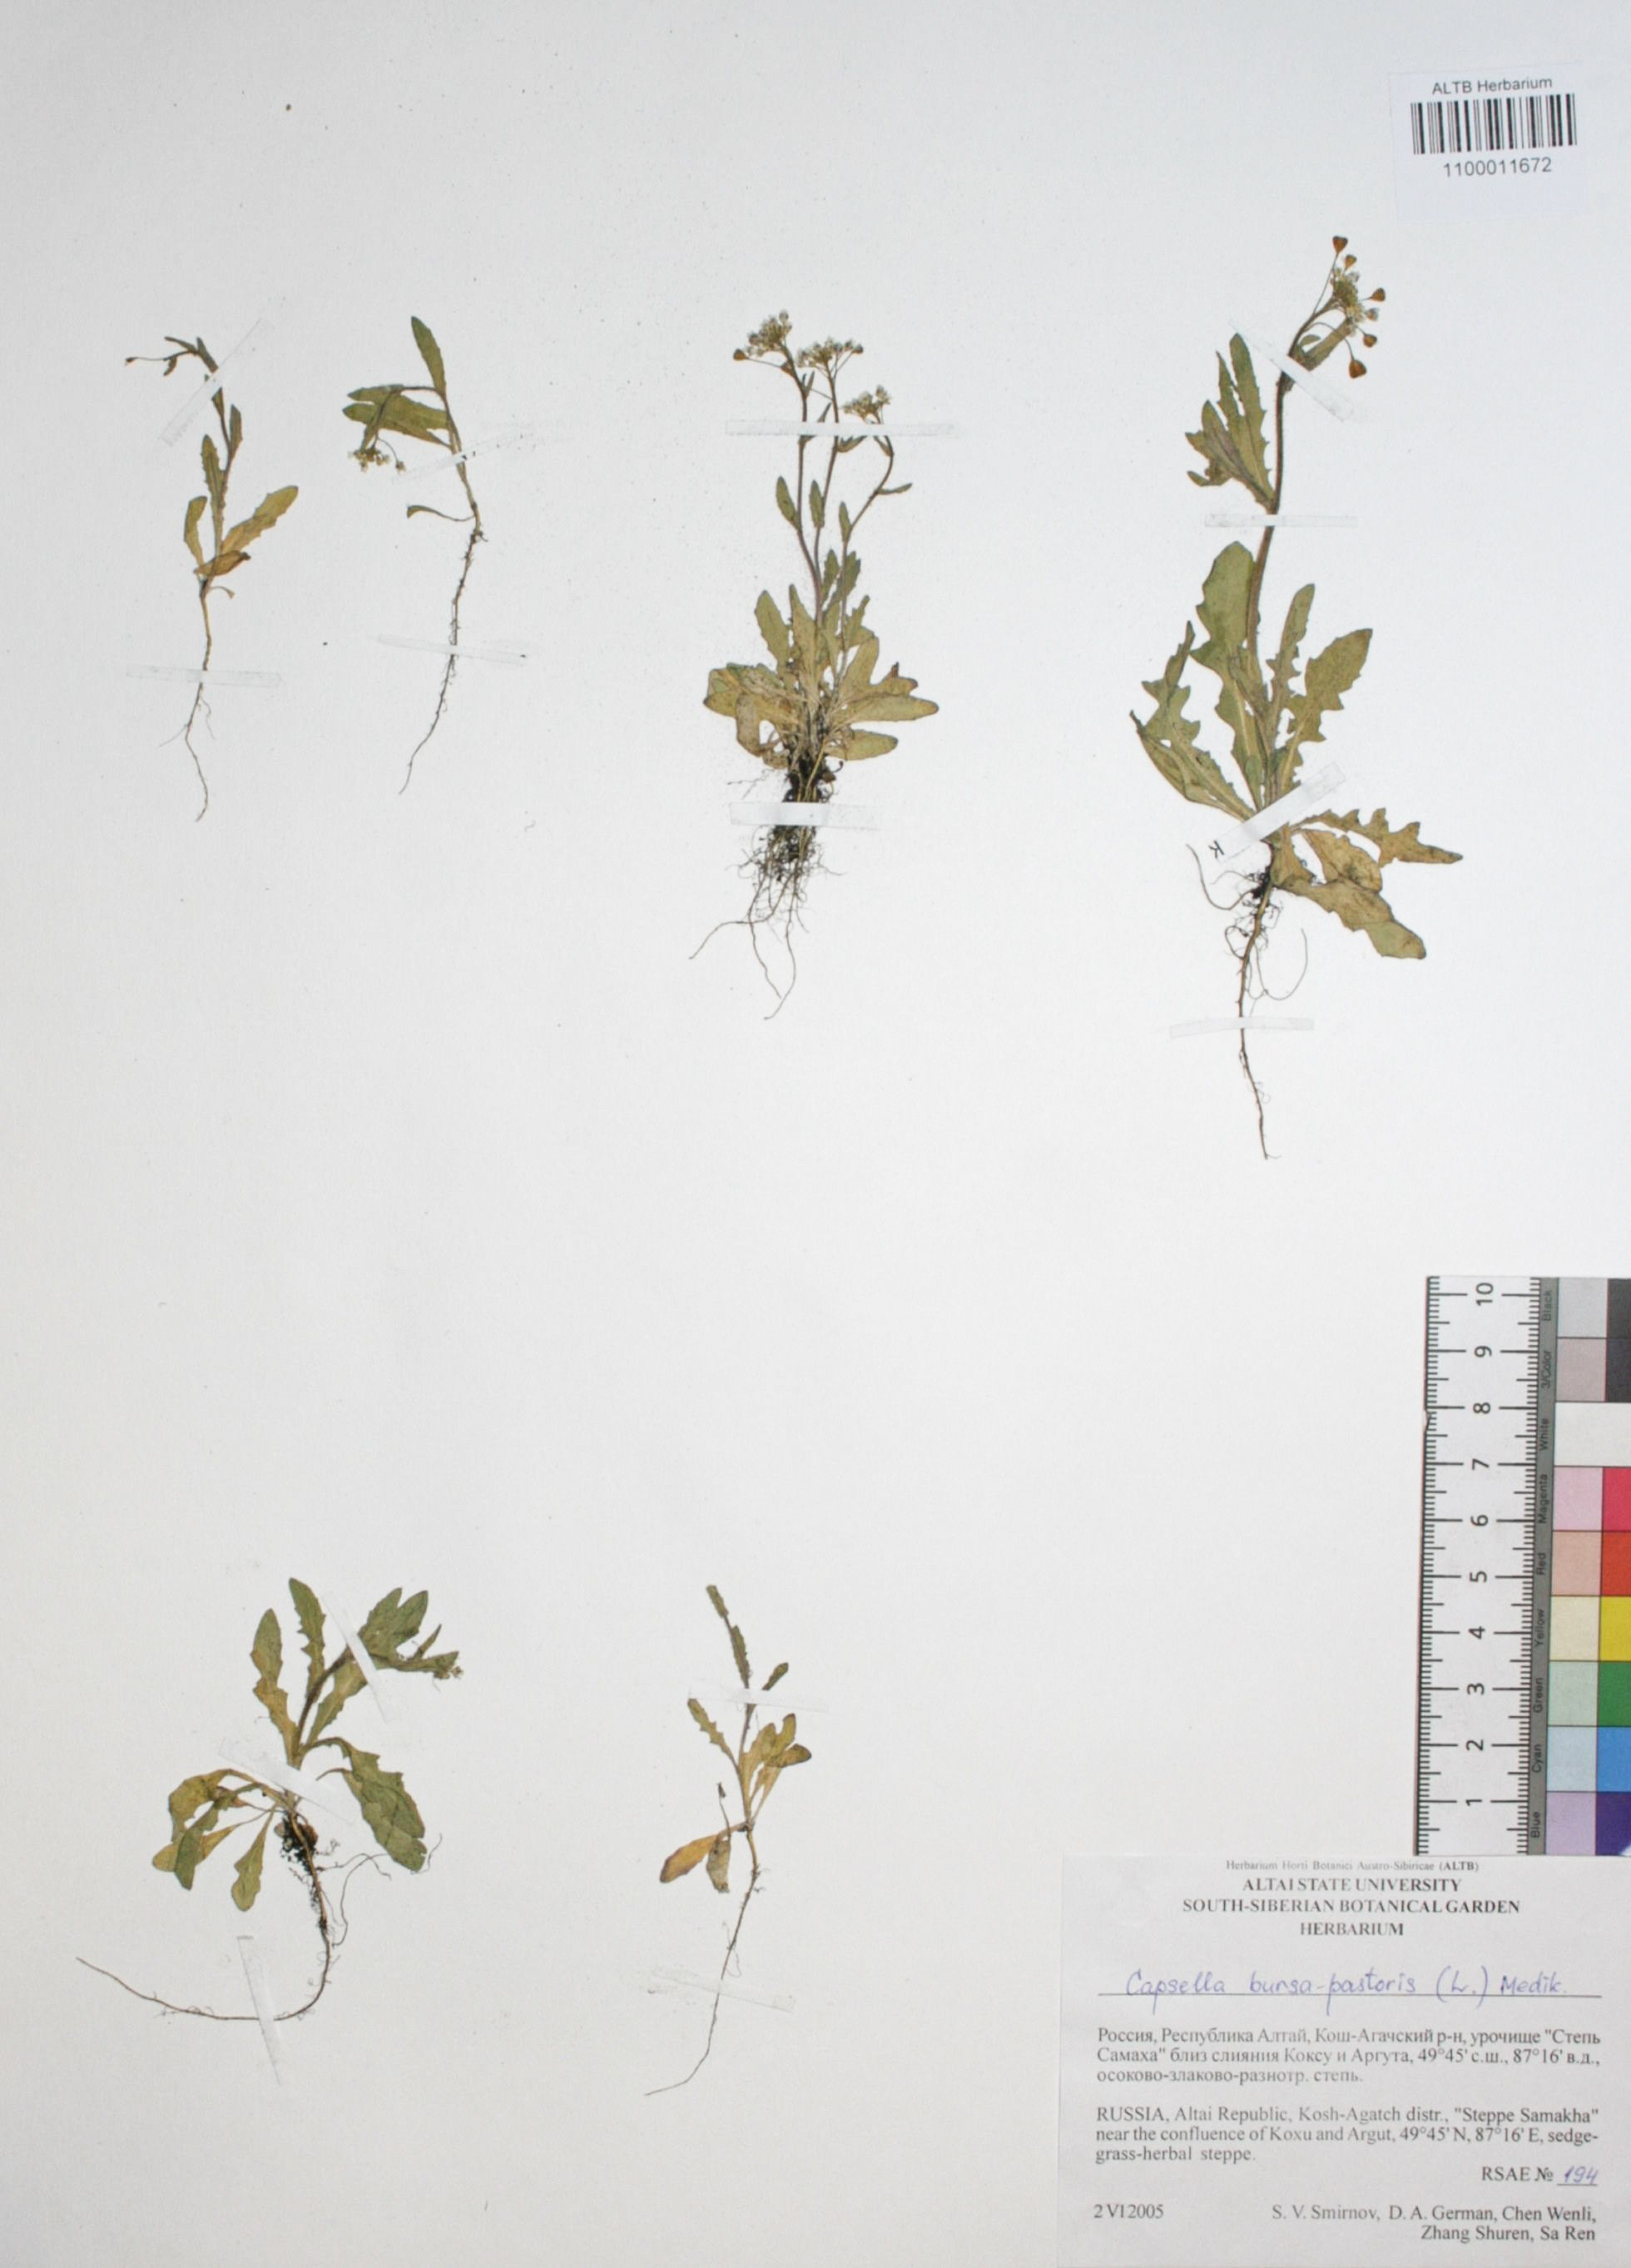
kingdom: Plantae
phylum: Tracheophyta
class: Magnoliopsida
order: Brassicales
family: Brassicaceae
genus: Capsella
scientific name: Capsella bursa-pastoris
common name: Shepherd's purse
